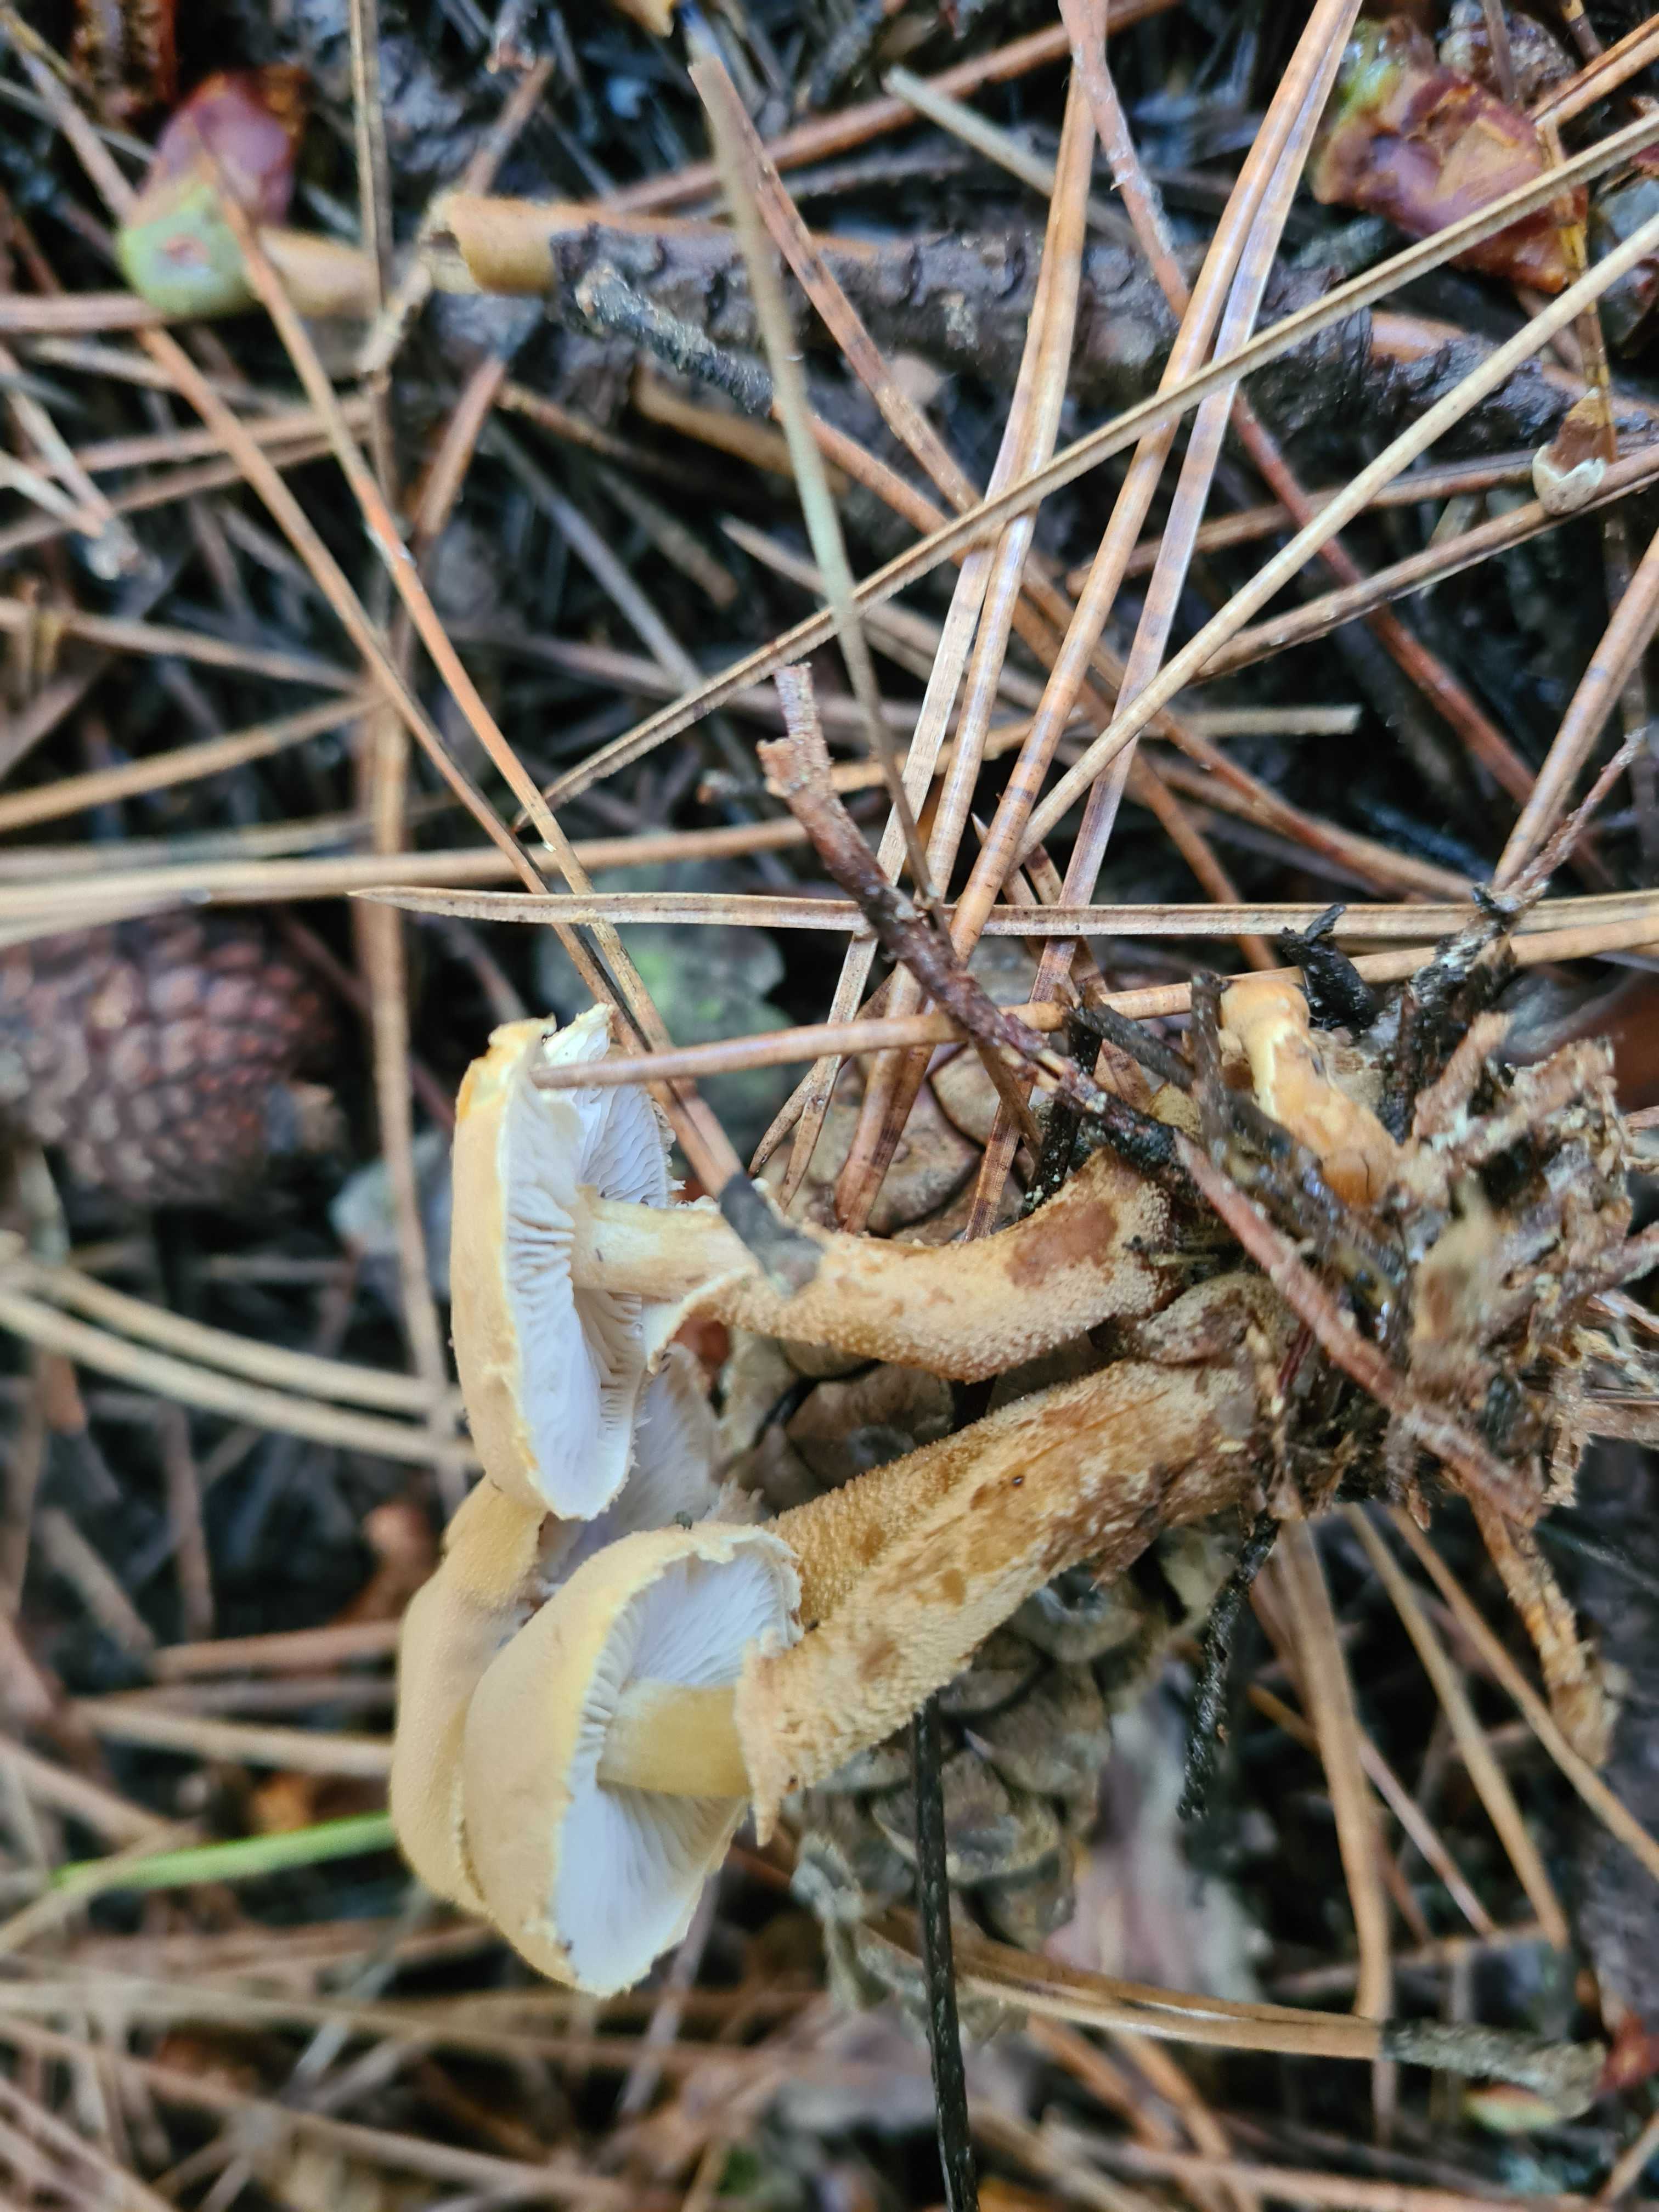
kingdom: Fungi
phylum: Basidiomycota
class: Agaricomycetes
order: Agaricales
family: Tricholomataceae
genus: Cystoderma
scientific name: Cystoderma amianthinum
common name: okkergul grynhat
